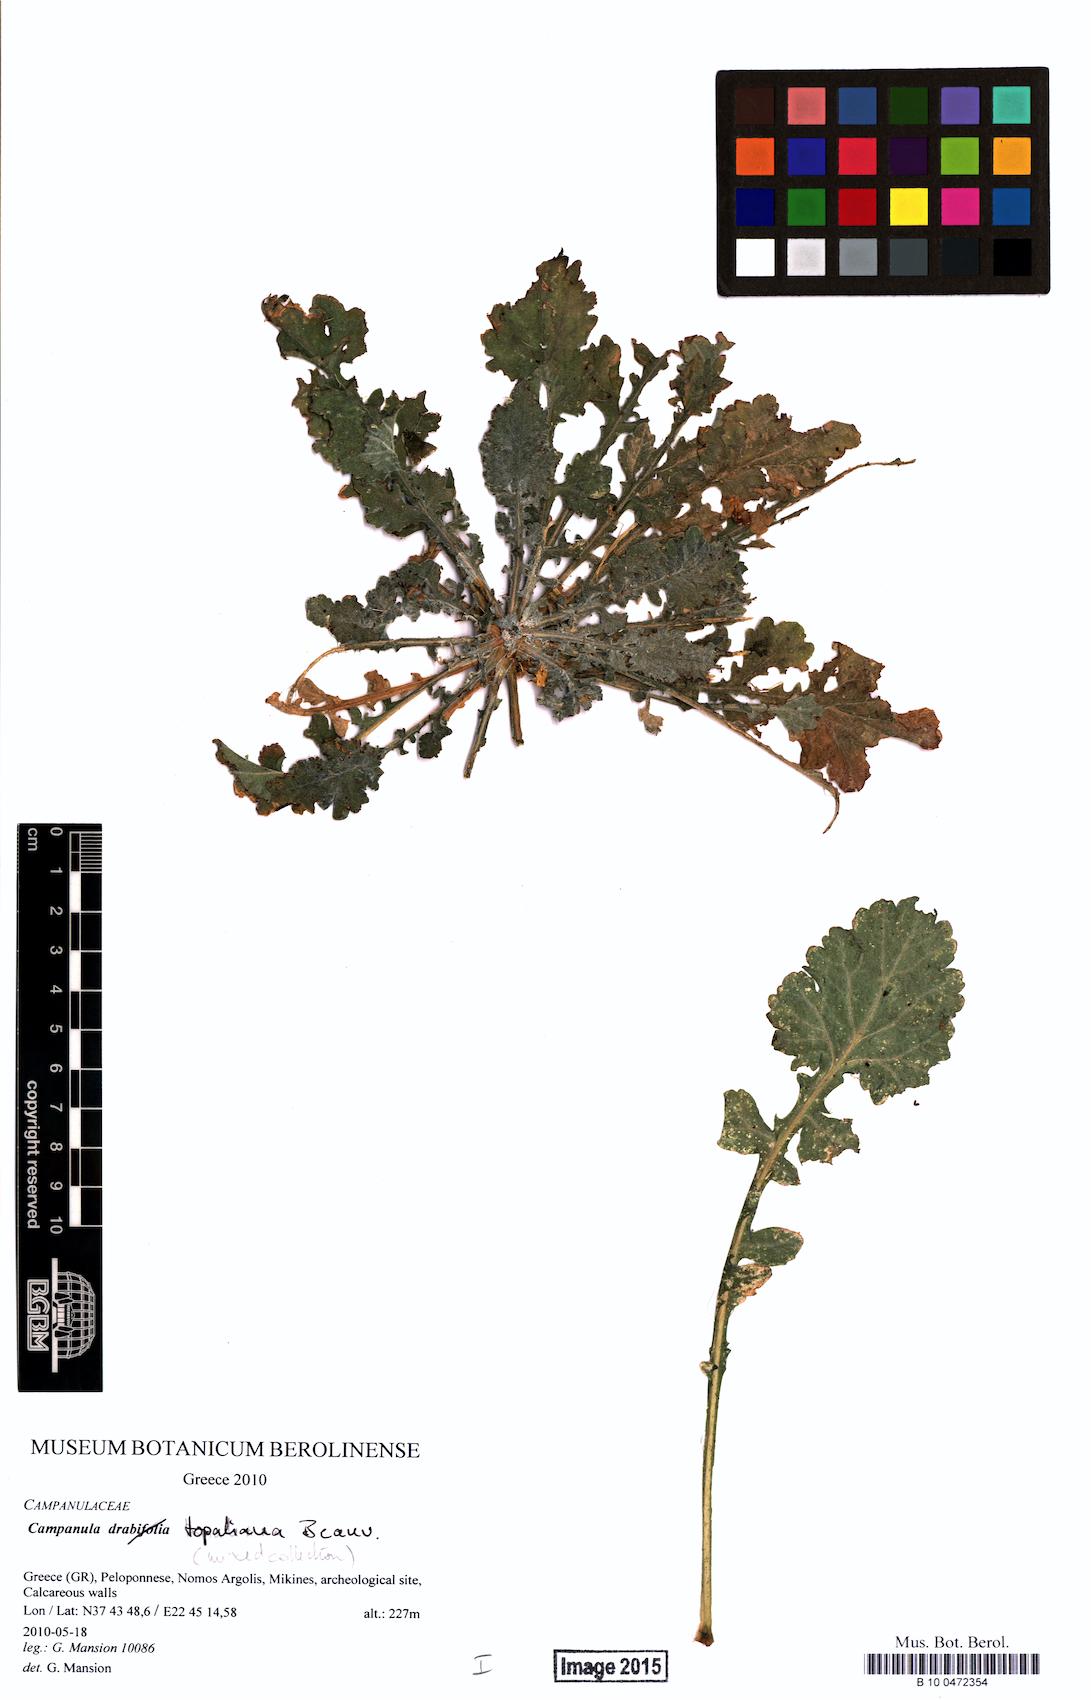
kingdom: Plantae
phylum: Tracheophyta
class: Magnoliopsida
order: Asterales
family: Campanulaceae
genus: Campanula
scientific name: Campanula topaliana
